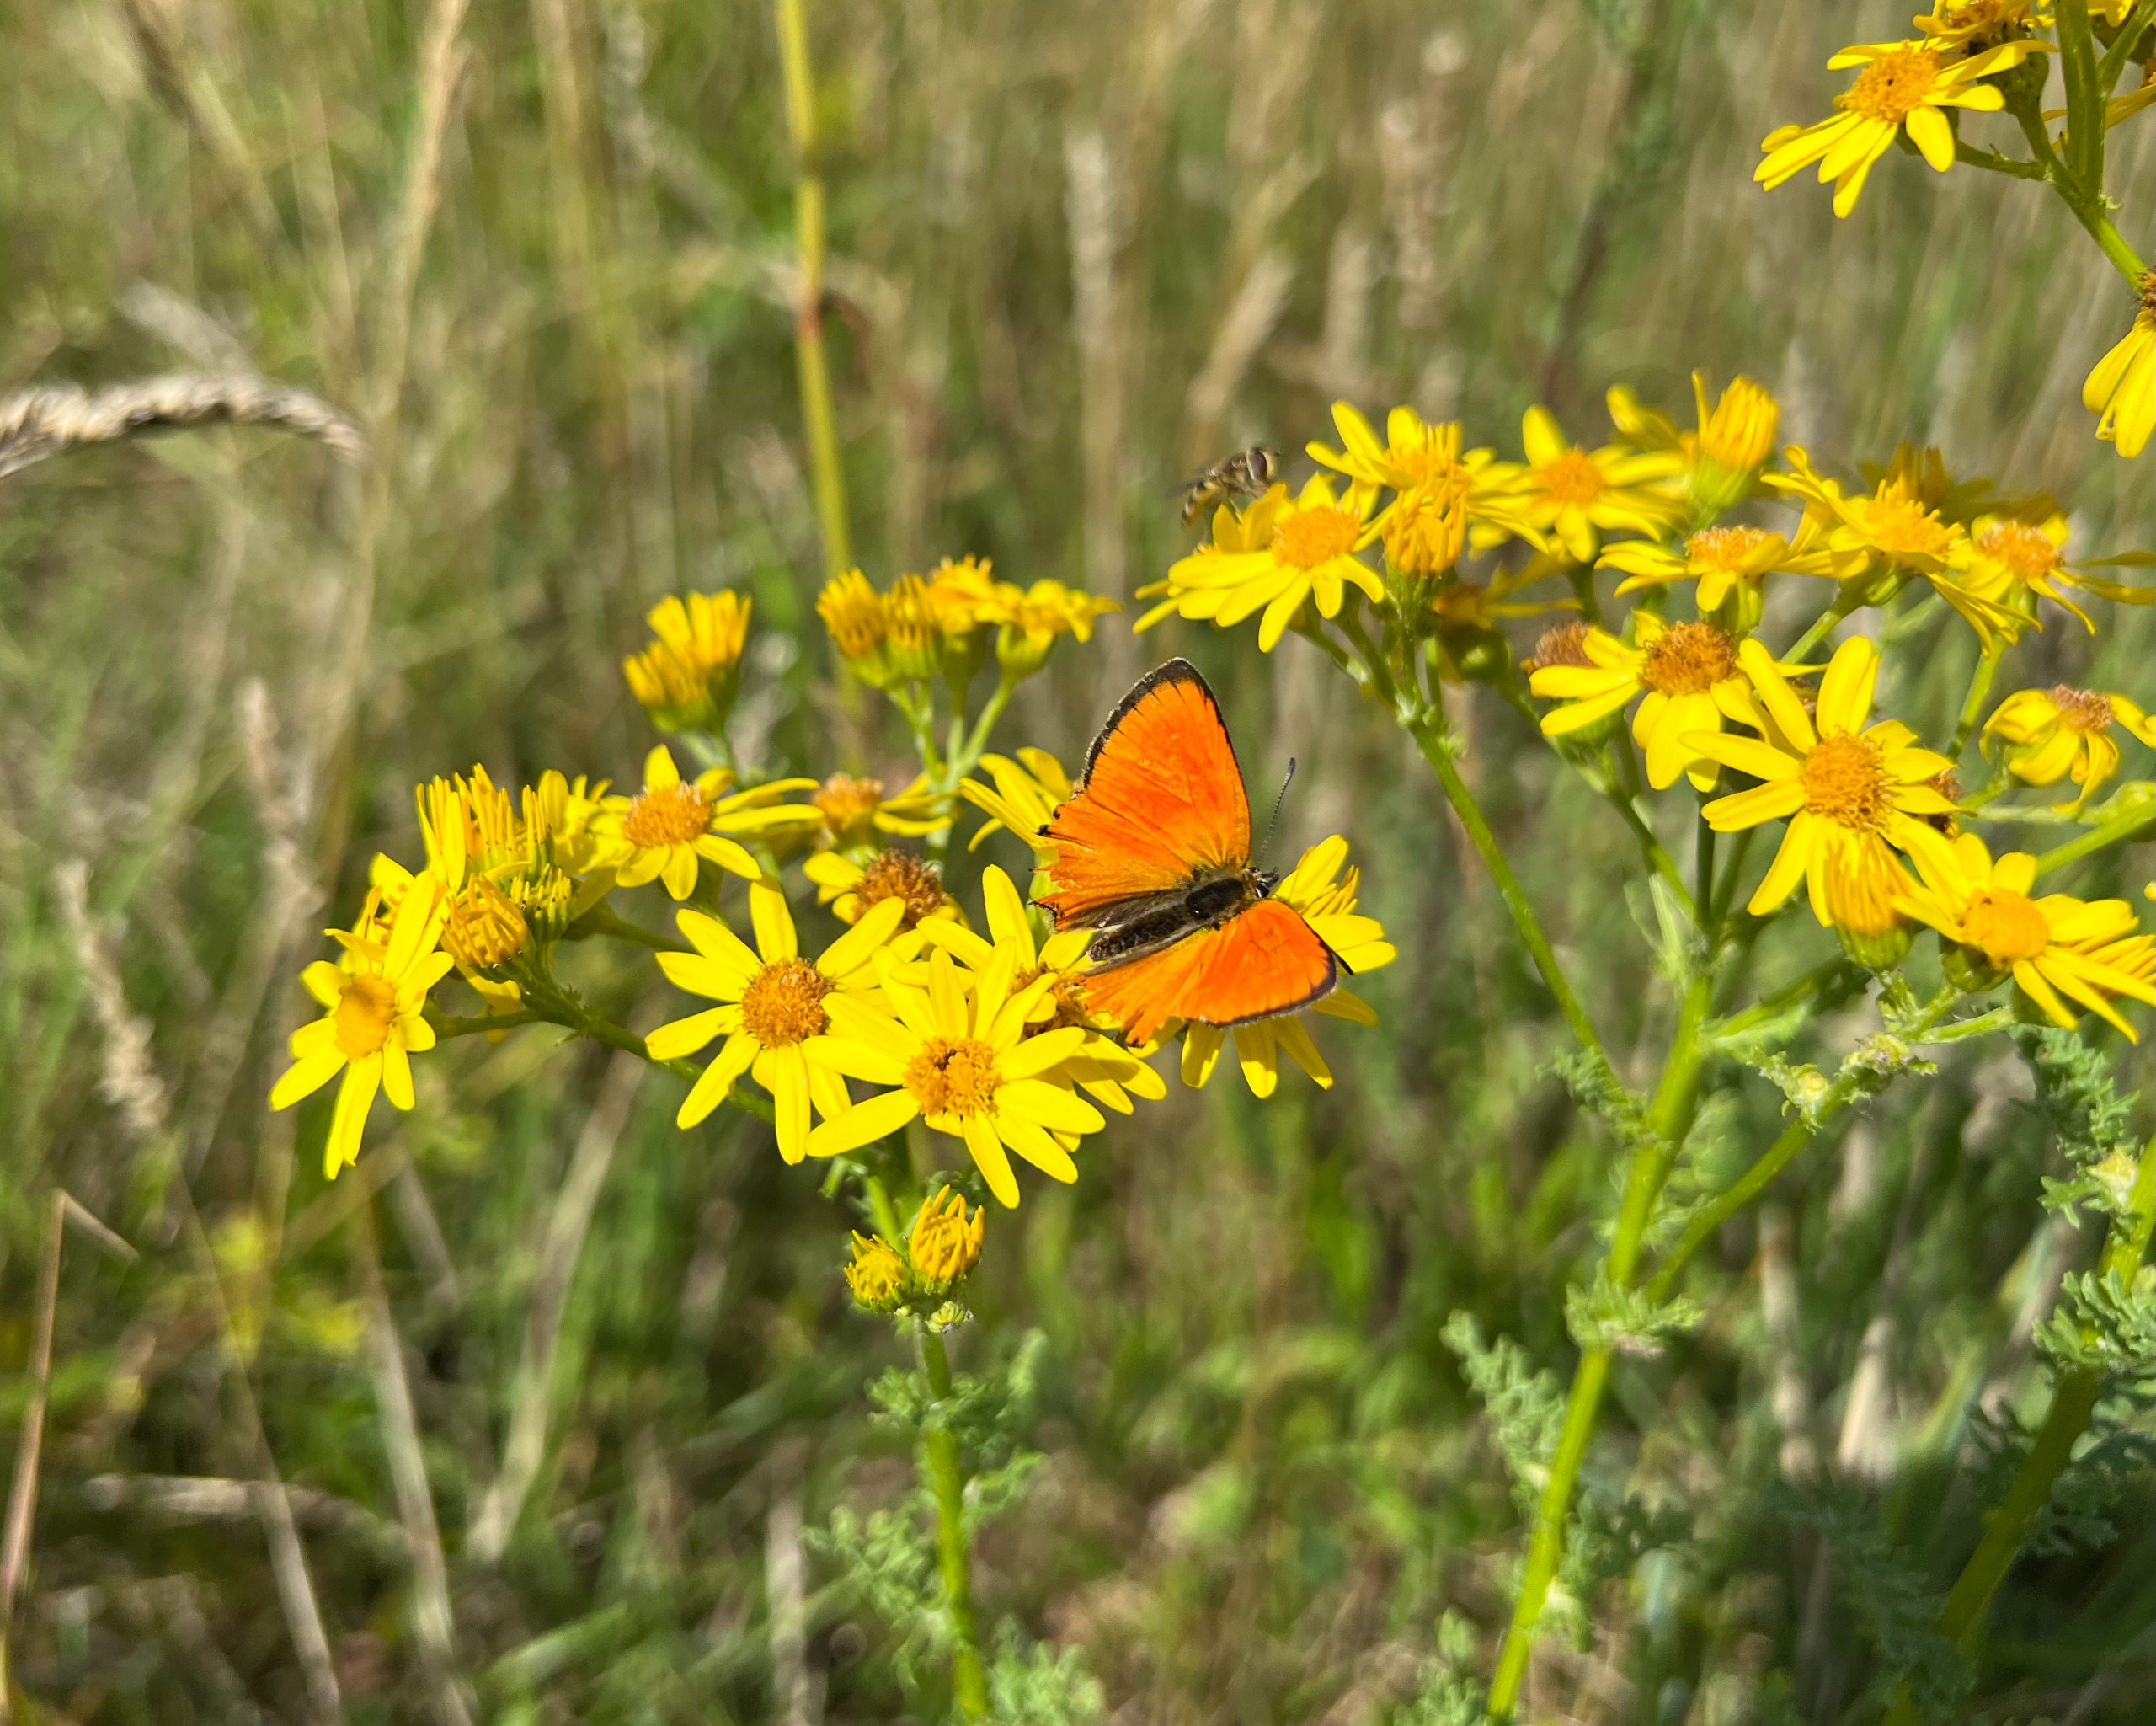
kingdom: Animalia
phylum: Arthropoda
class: Insecta
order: Lepidoptera
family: Lycaenidae
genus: Lycaena
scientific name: Lycaena virgaureae
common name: Dukatsommerfugl
